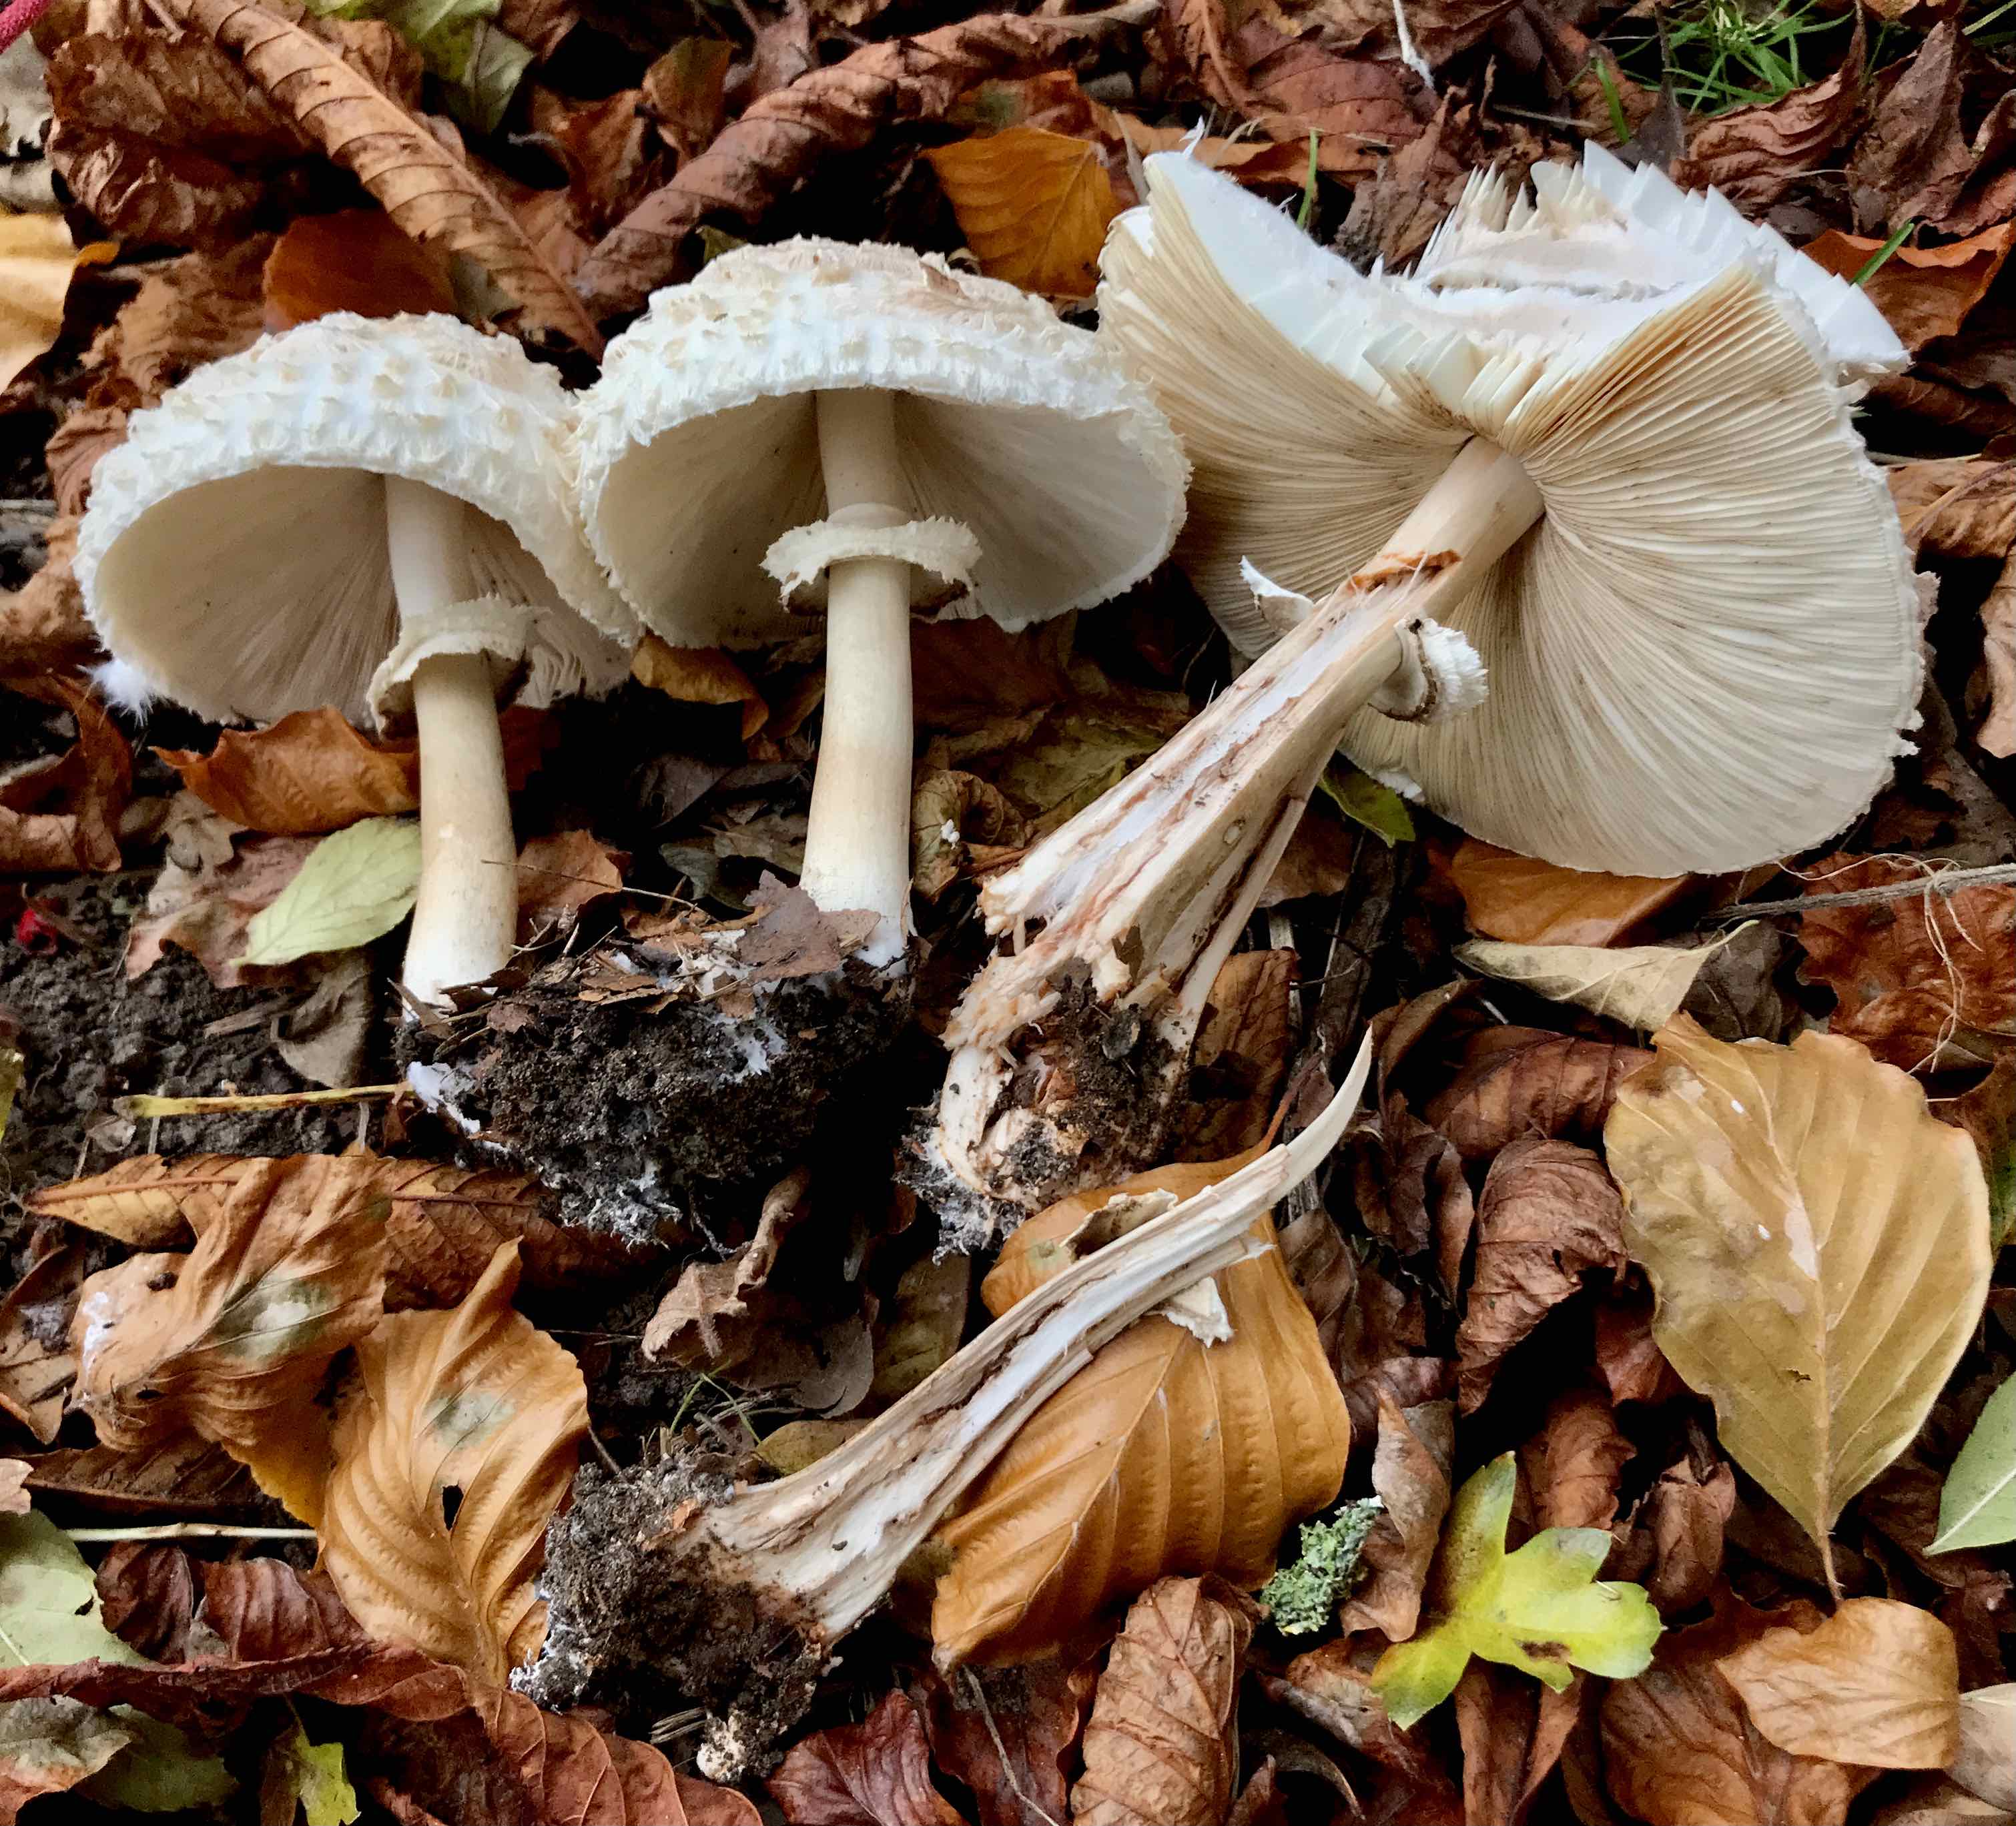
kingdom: Fungi
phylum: Basidiomycota
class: Agaricomycetes
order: Agaricales
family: Agaricaceae
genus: Chlorophyllum
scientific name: Chlorophyllum rhacodes
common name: ægte rabarberhat
